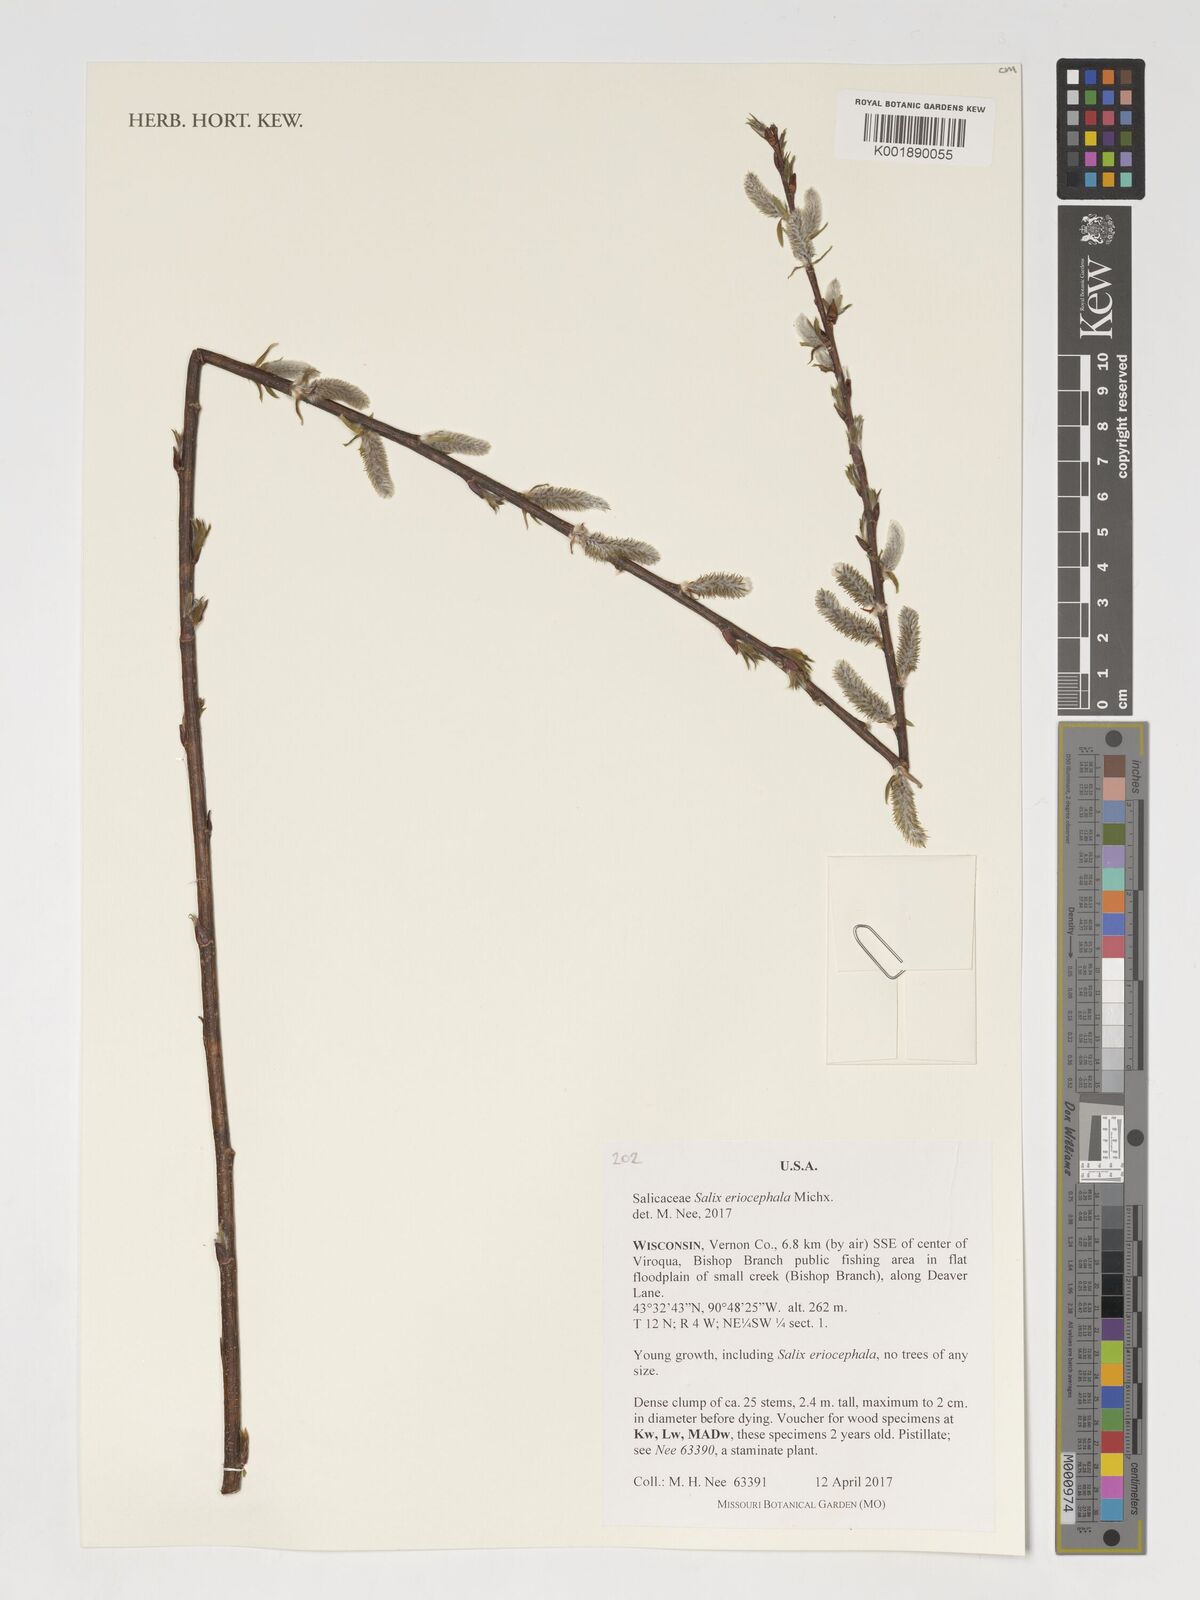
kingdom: Plantae
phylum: Tracheophyta
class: Magnoliopsida
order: Malpighiales
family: Salicaceae
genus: Salix
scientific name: Salix eriocephala
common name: Heart-leaved willow
